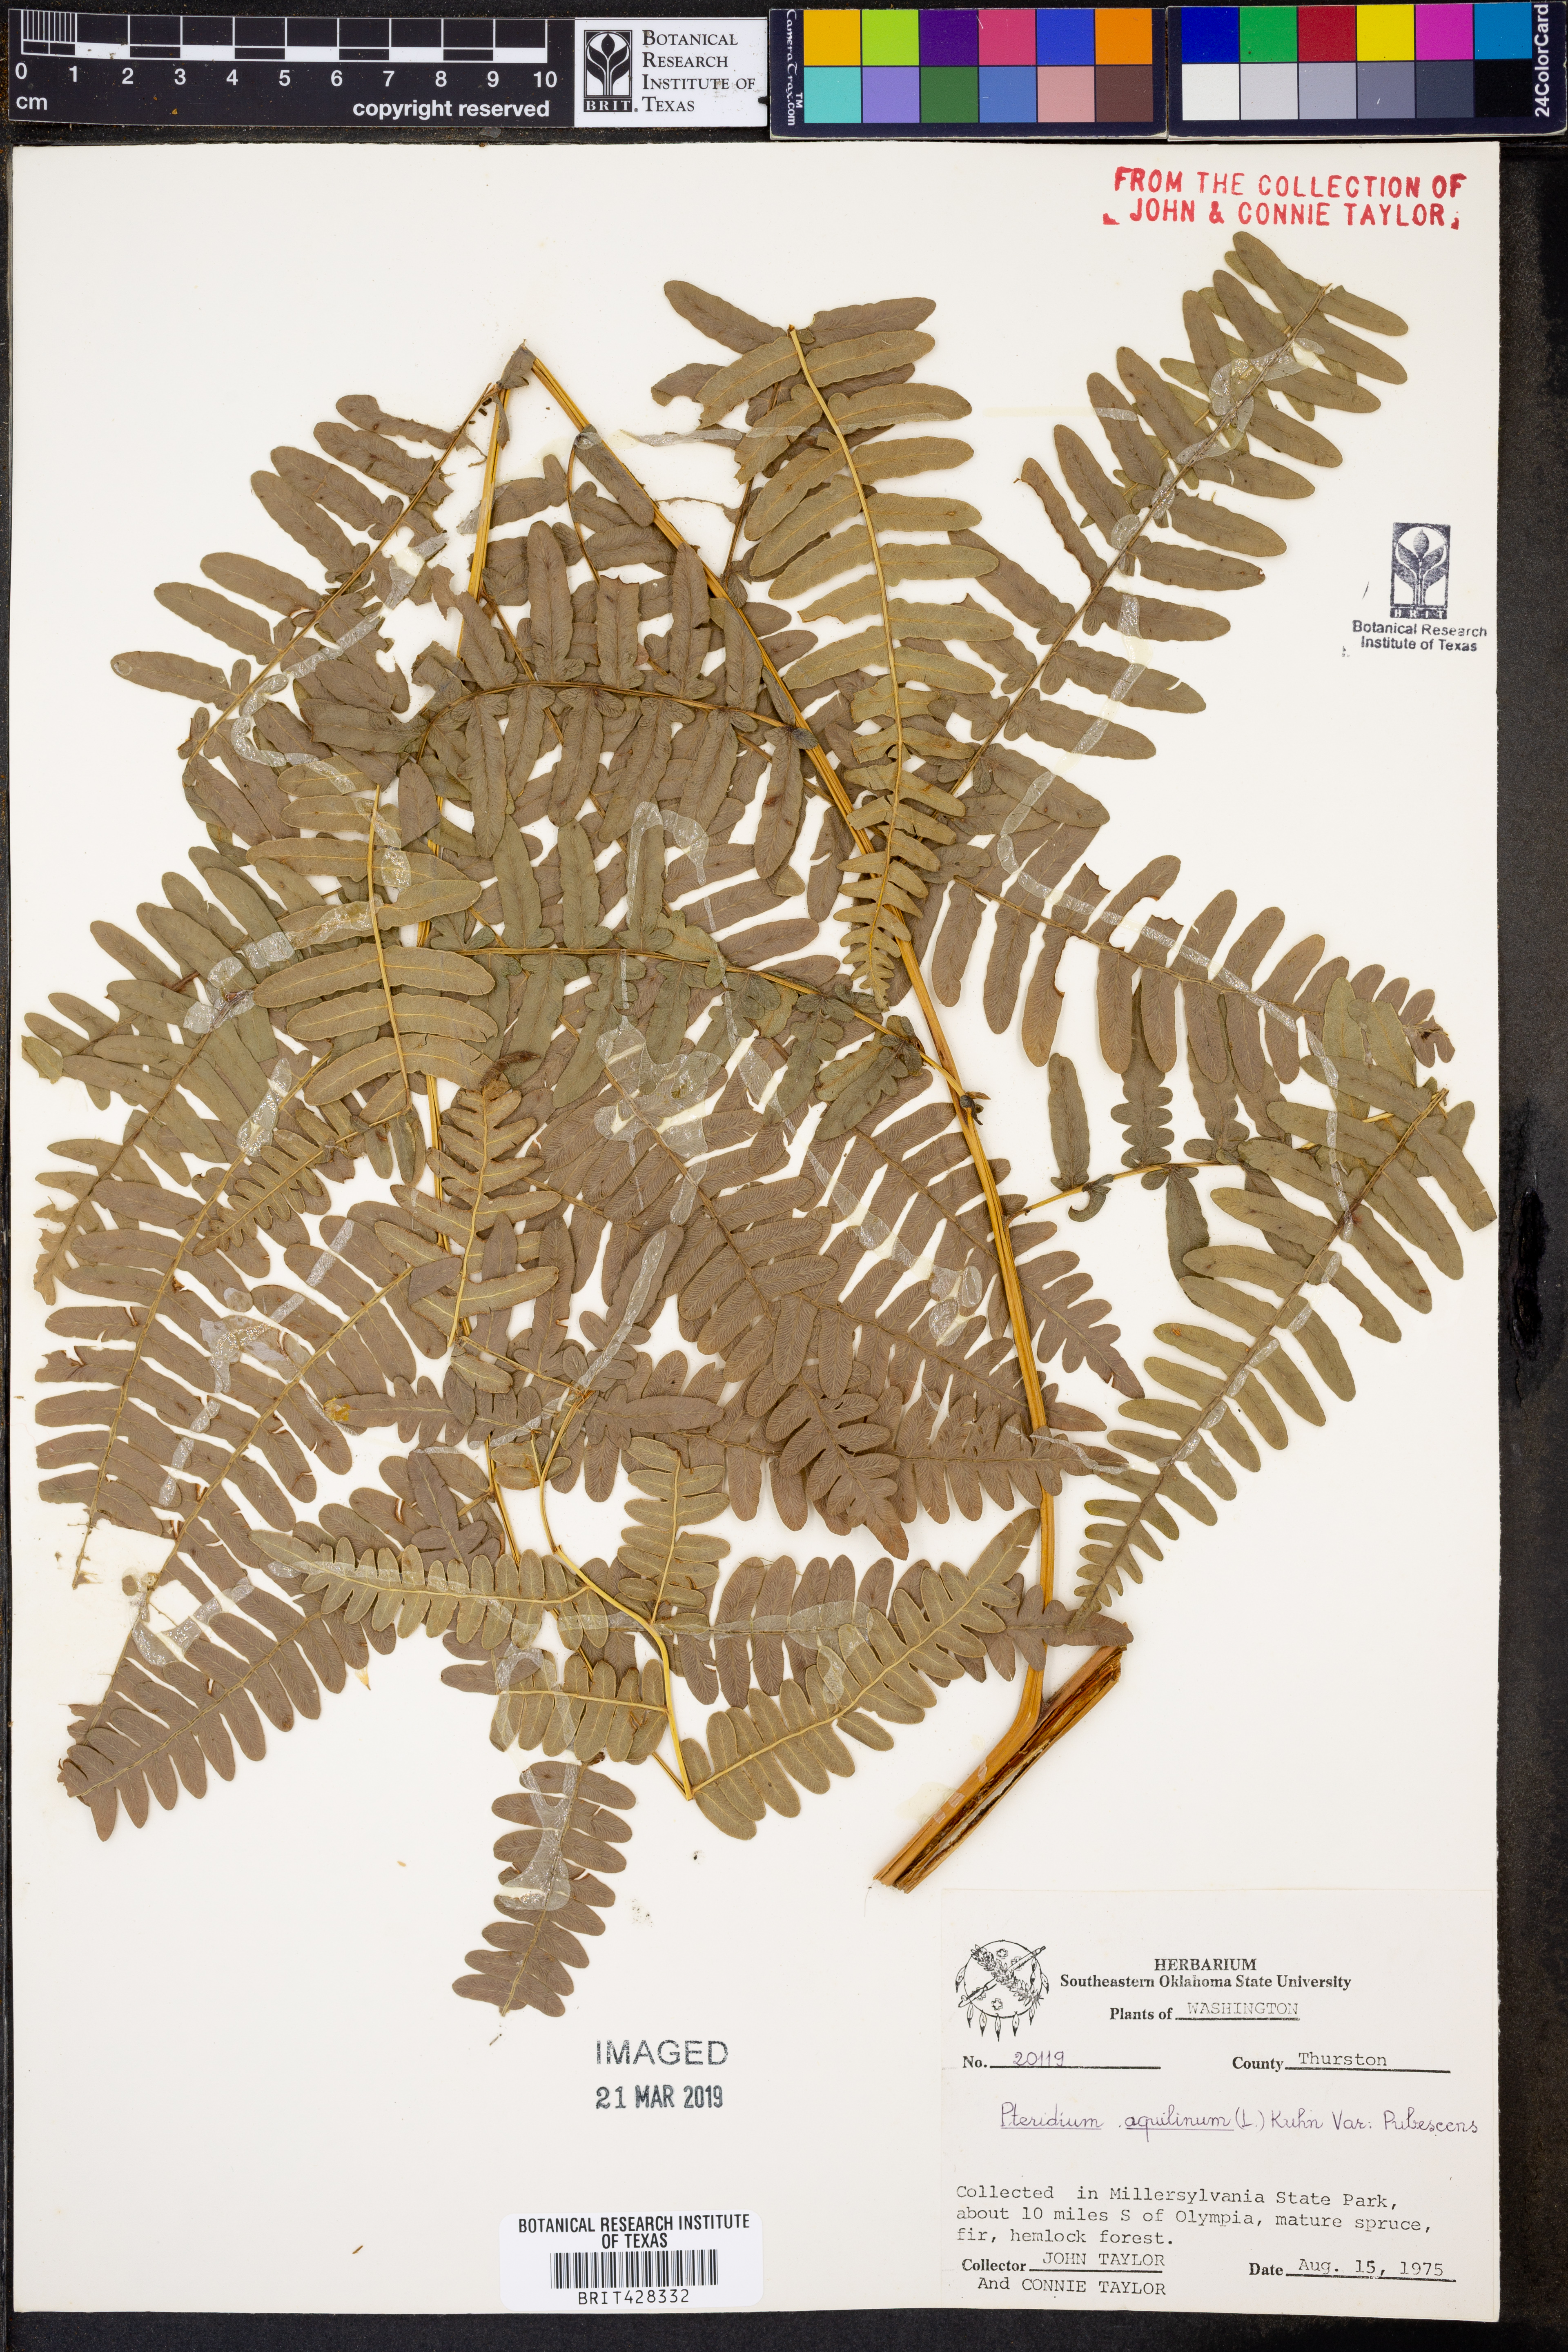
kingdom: Plantae
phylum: Tracheophyta
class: Polypodiopsida
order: Polypodiales
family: Dennstaedtiaceae
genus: Pteridium
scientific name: Pteridium aquilinum
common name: Bracken
